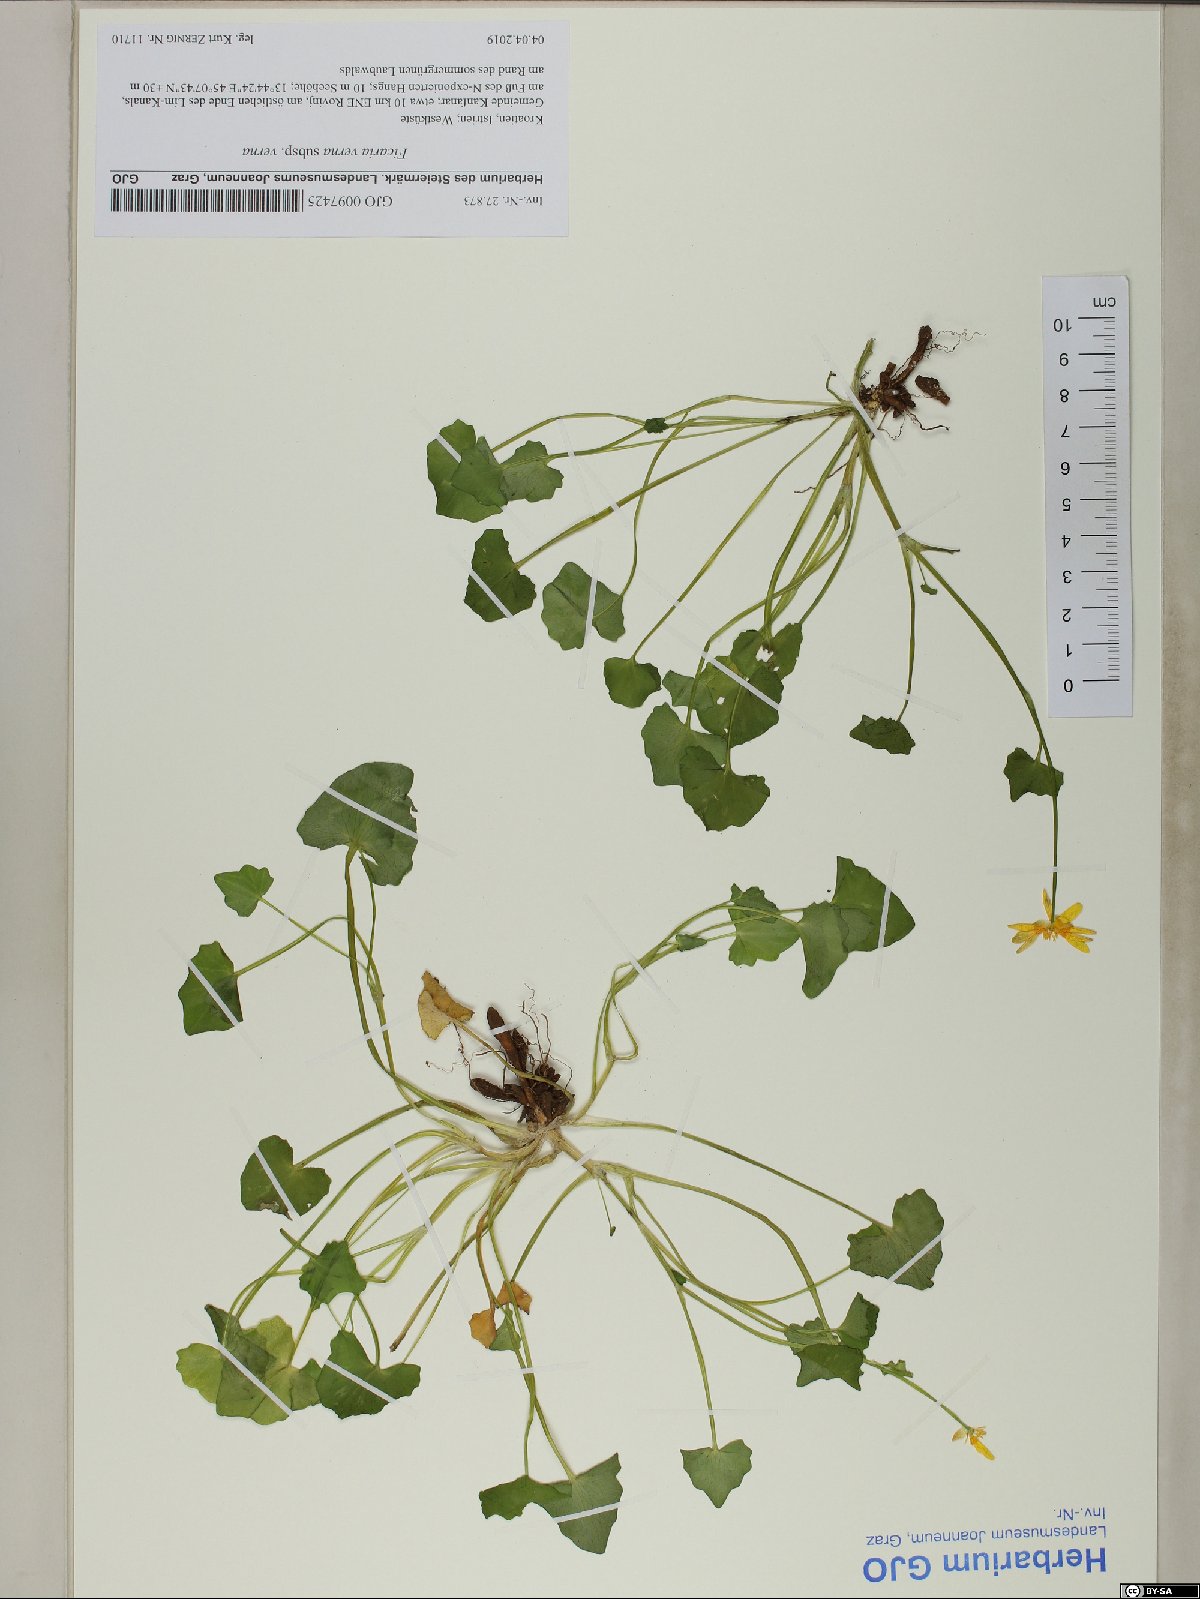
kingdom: Plantae
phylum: Tracheophyta
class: Magnoliopsida
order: Ranunculales
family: Ranunculaceae
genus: Ficaria
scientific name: Ficaria verna
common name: Lesser celandine
